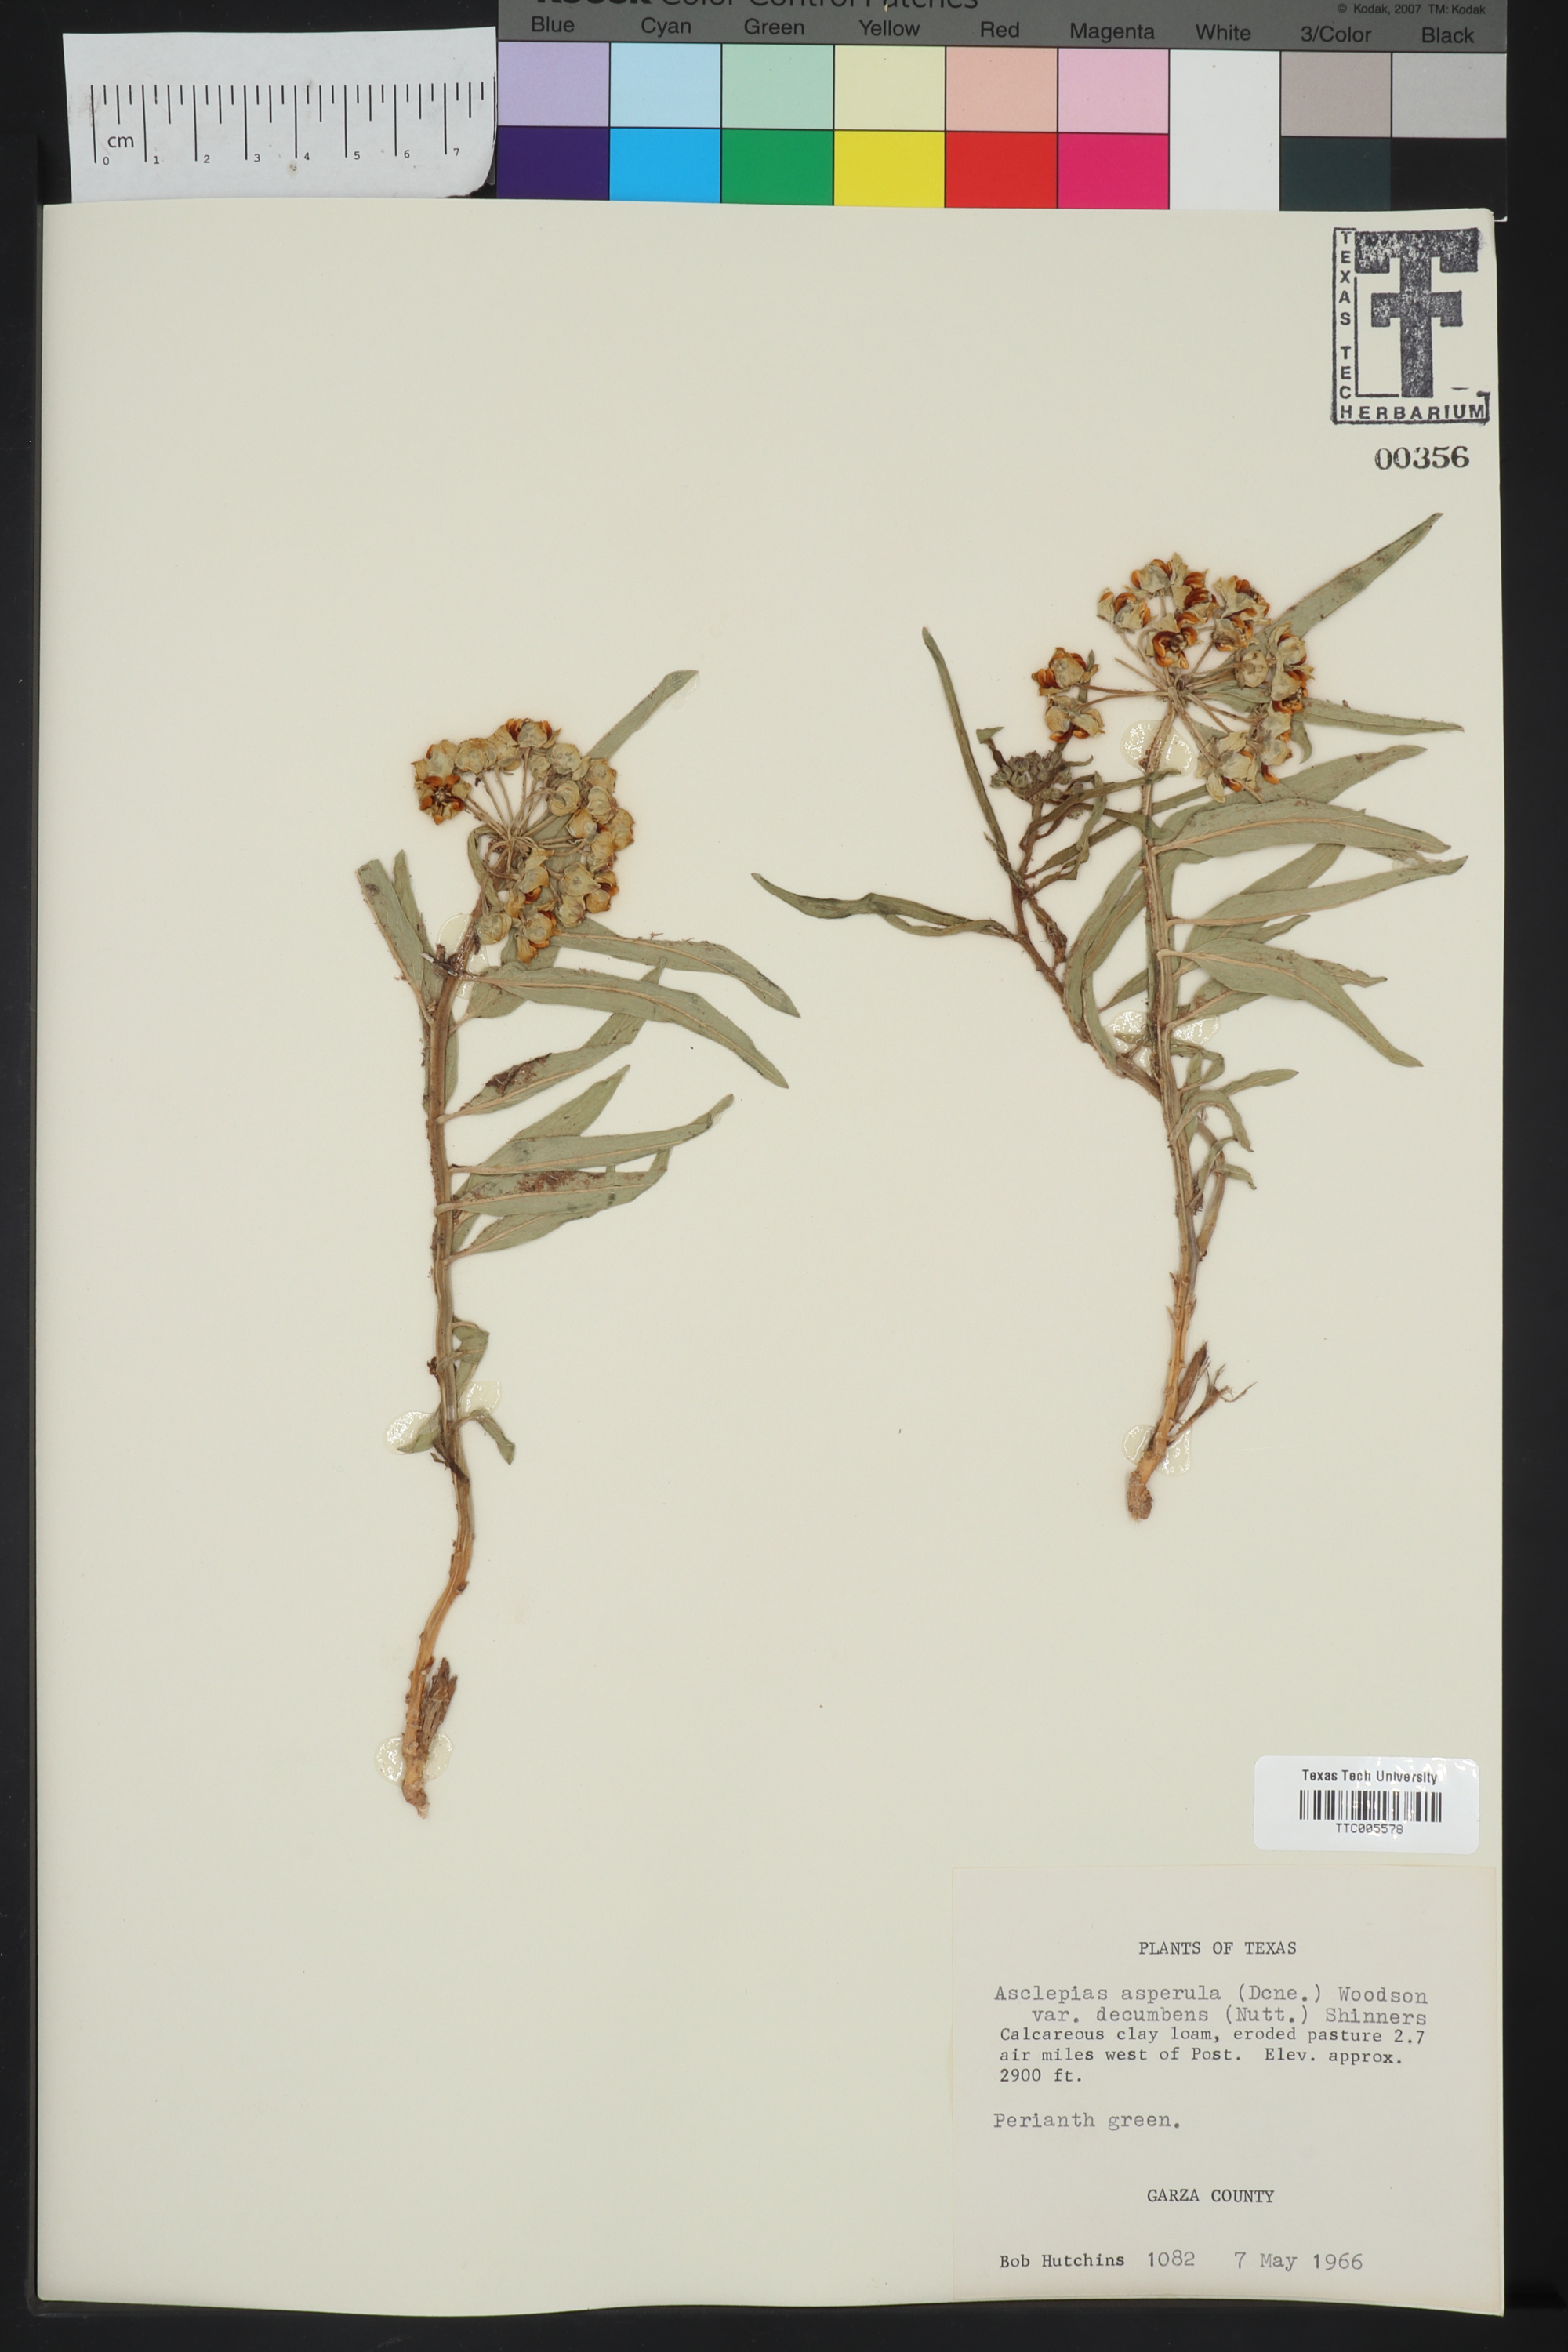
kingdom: Plantae
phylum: Tracheophyta
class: Magnoliopsida
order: Gentianales
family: Apocynaceae
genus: Asclepias
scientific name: Asclepias asperula
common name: Antelope horns
